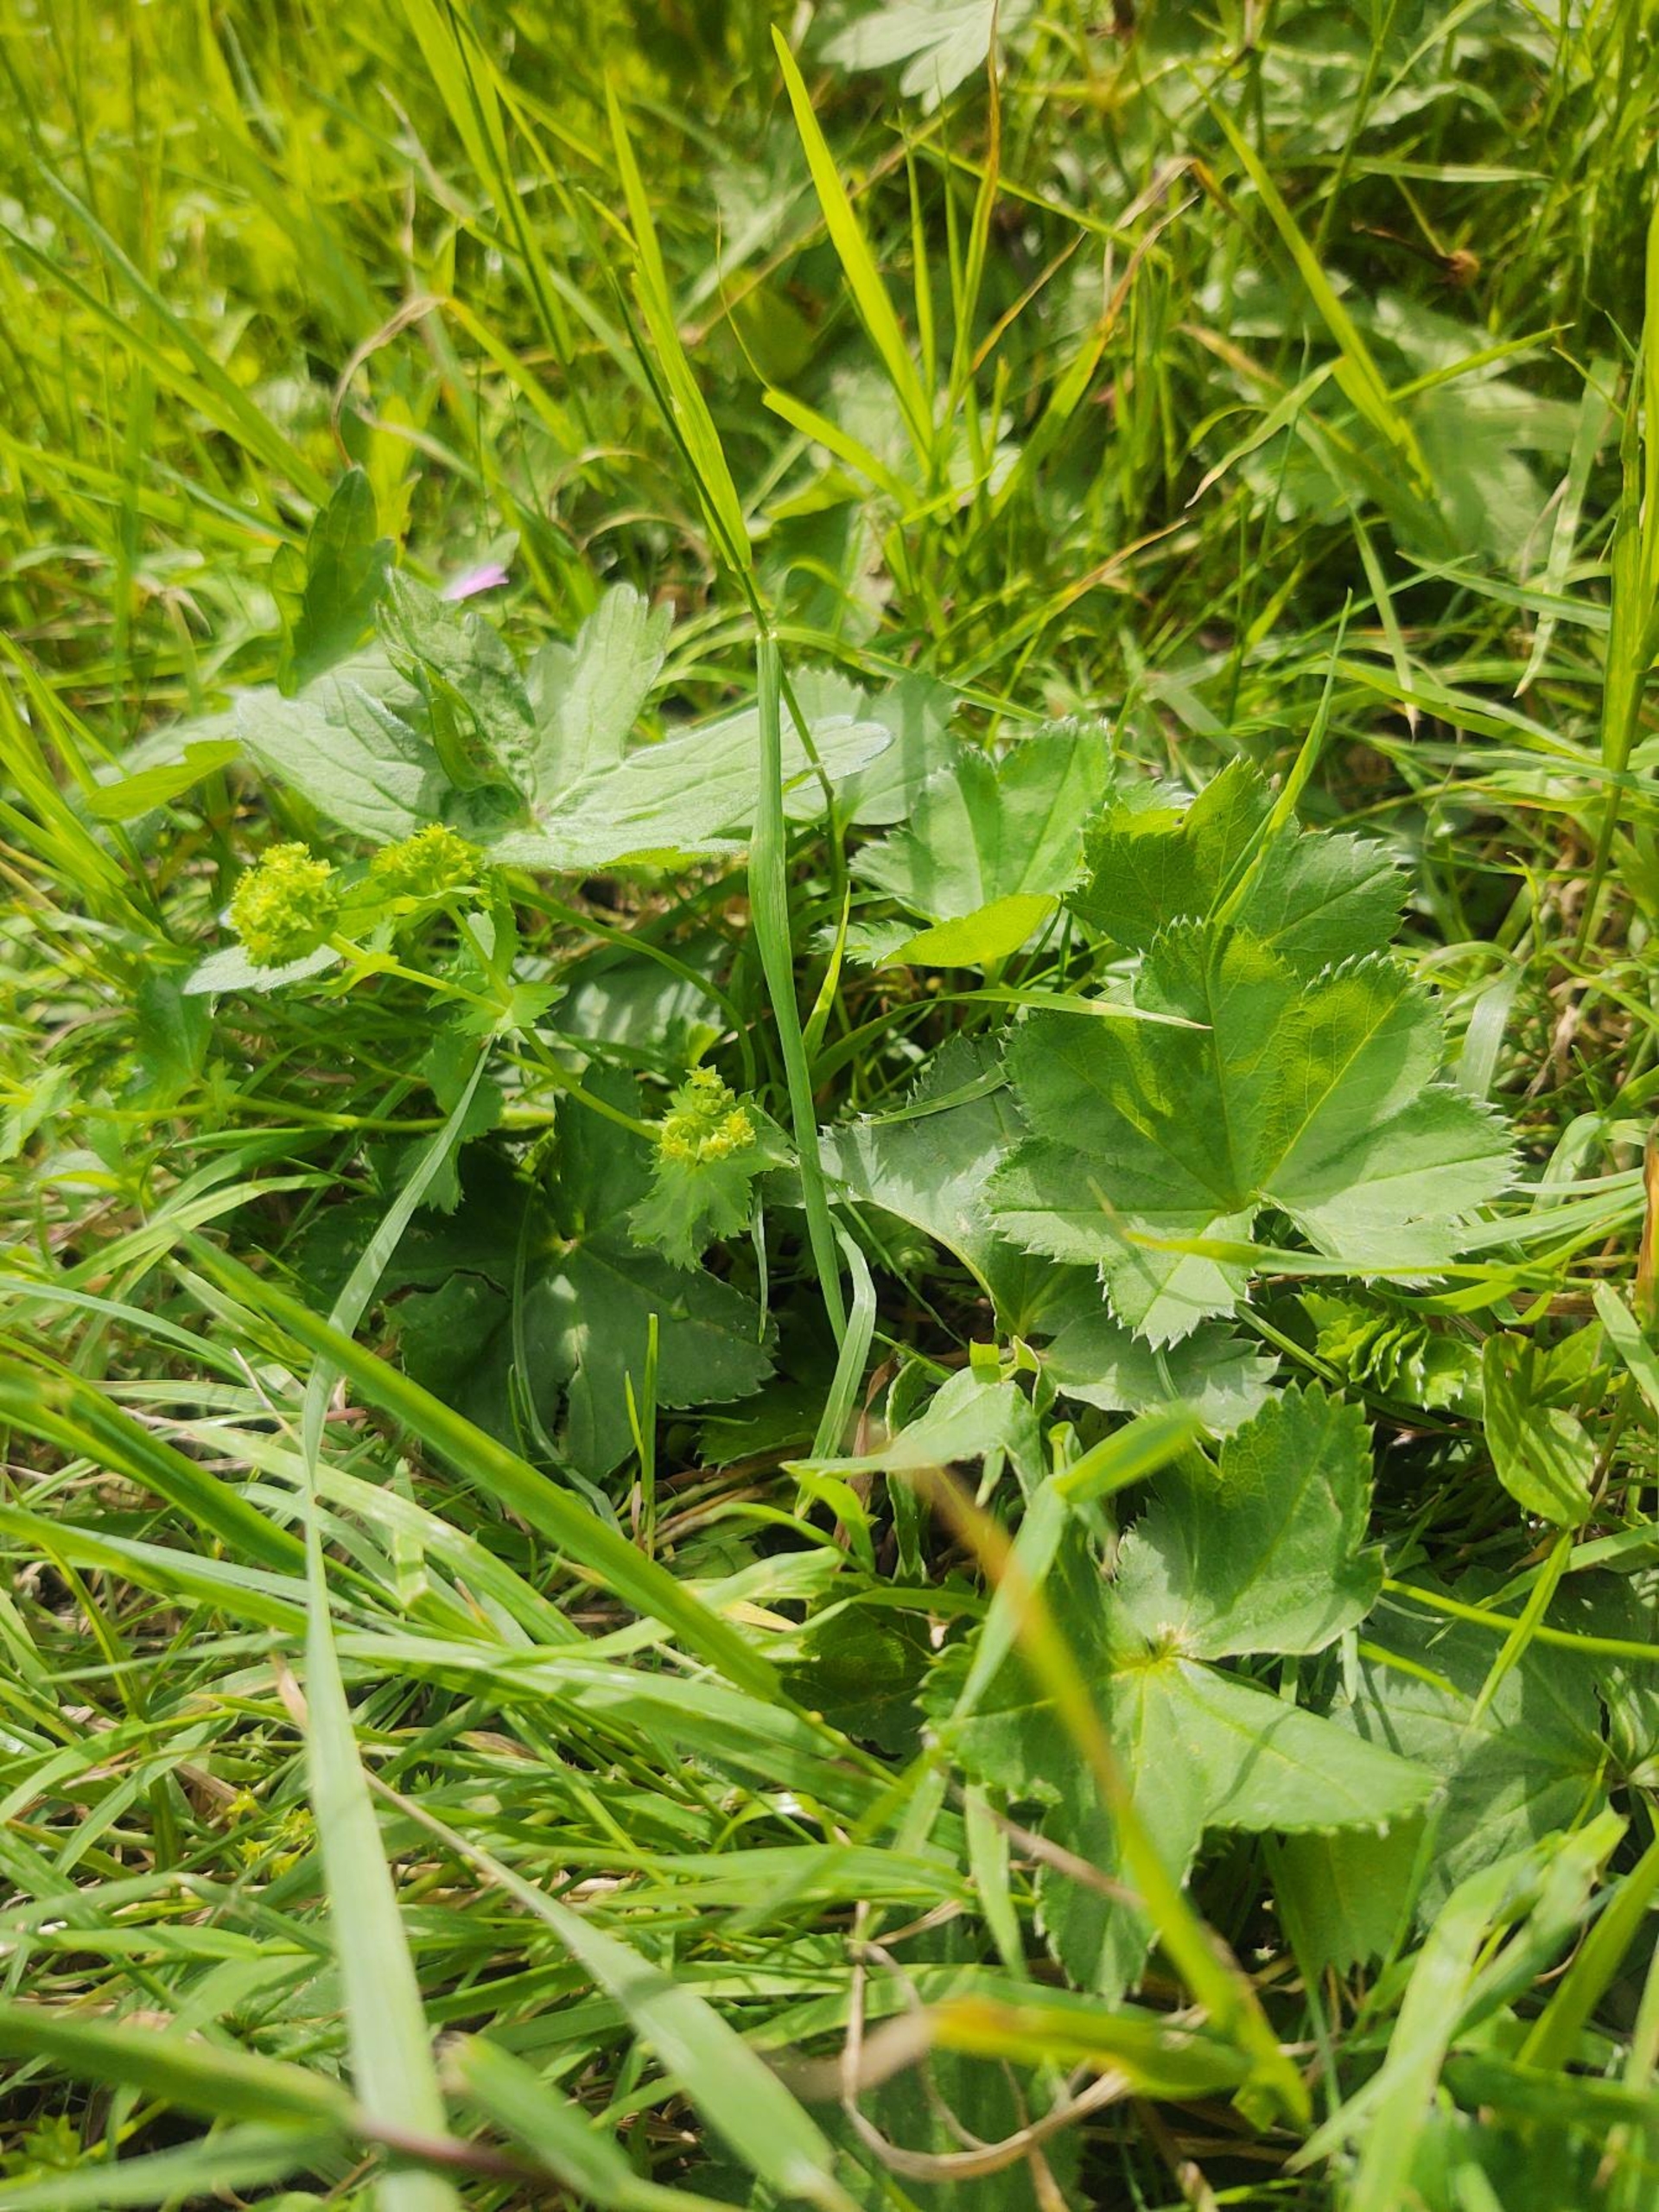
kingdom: Plantae
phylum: Tracheophyta
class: Magnoliopsida
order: Rosales
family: Rosaceae
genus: Alchemilla
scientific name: Alchemilla filicaulis
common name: Trådstænglet løvefod
